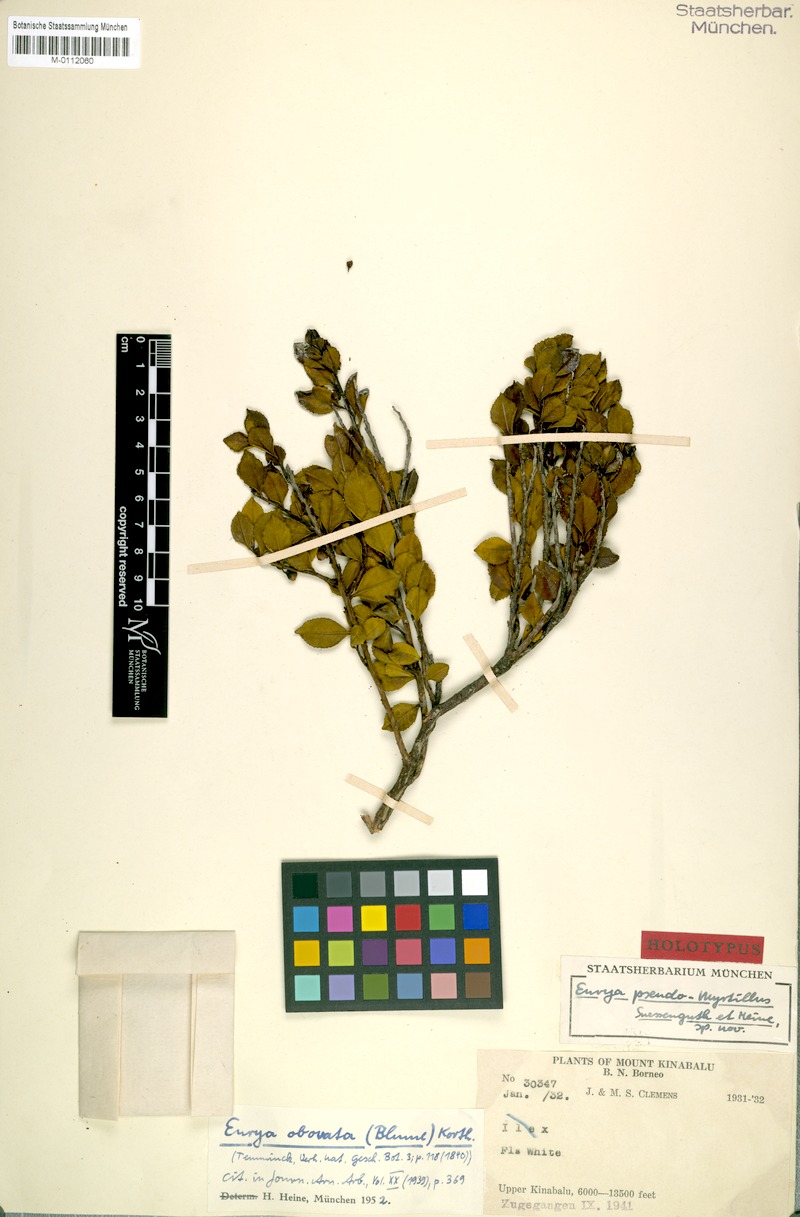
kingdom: Plantae
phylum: Tracheophyta
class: Magnoliopsida
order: Ericales
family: Pentaphylacaceae
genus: Eurya
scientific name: Eurya obovata
